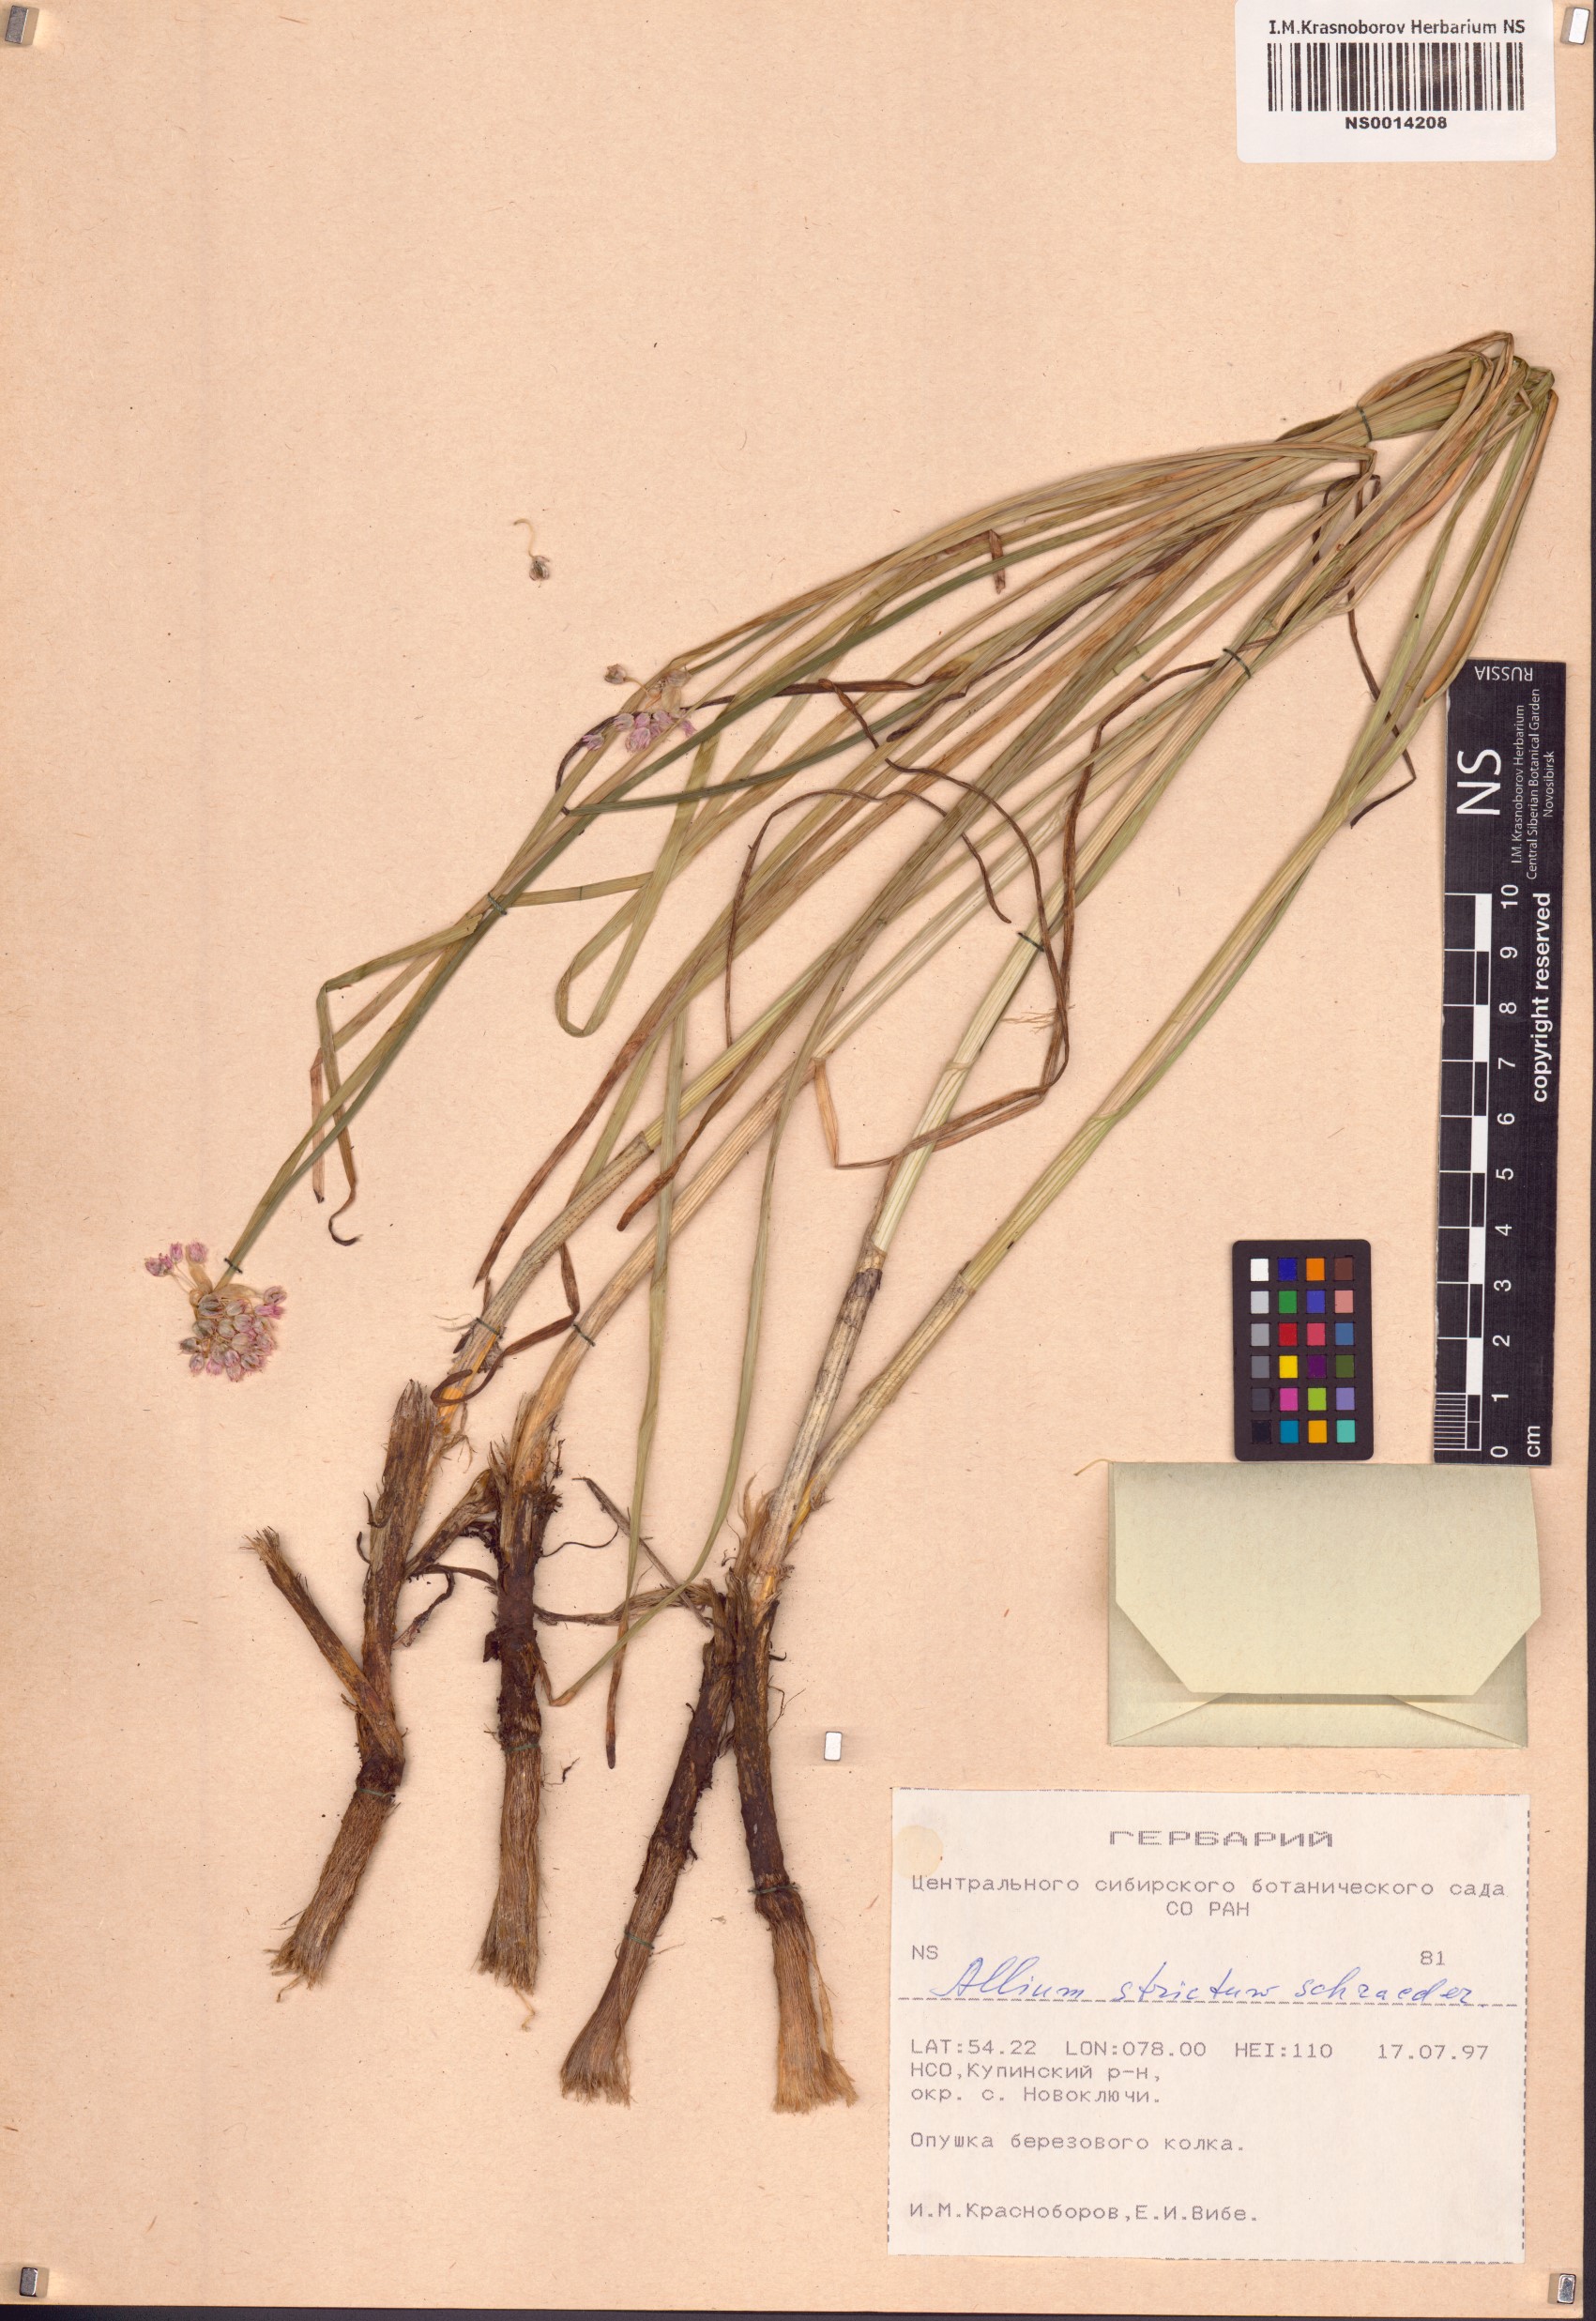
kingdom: Plantae
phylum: Tracheophyta
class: Liliopsida
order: Asparagales
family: Amaryllidaceae
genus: Allium
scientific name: Allium strictum
